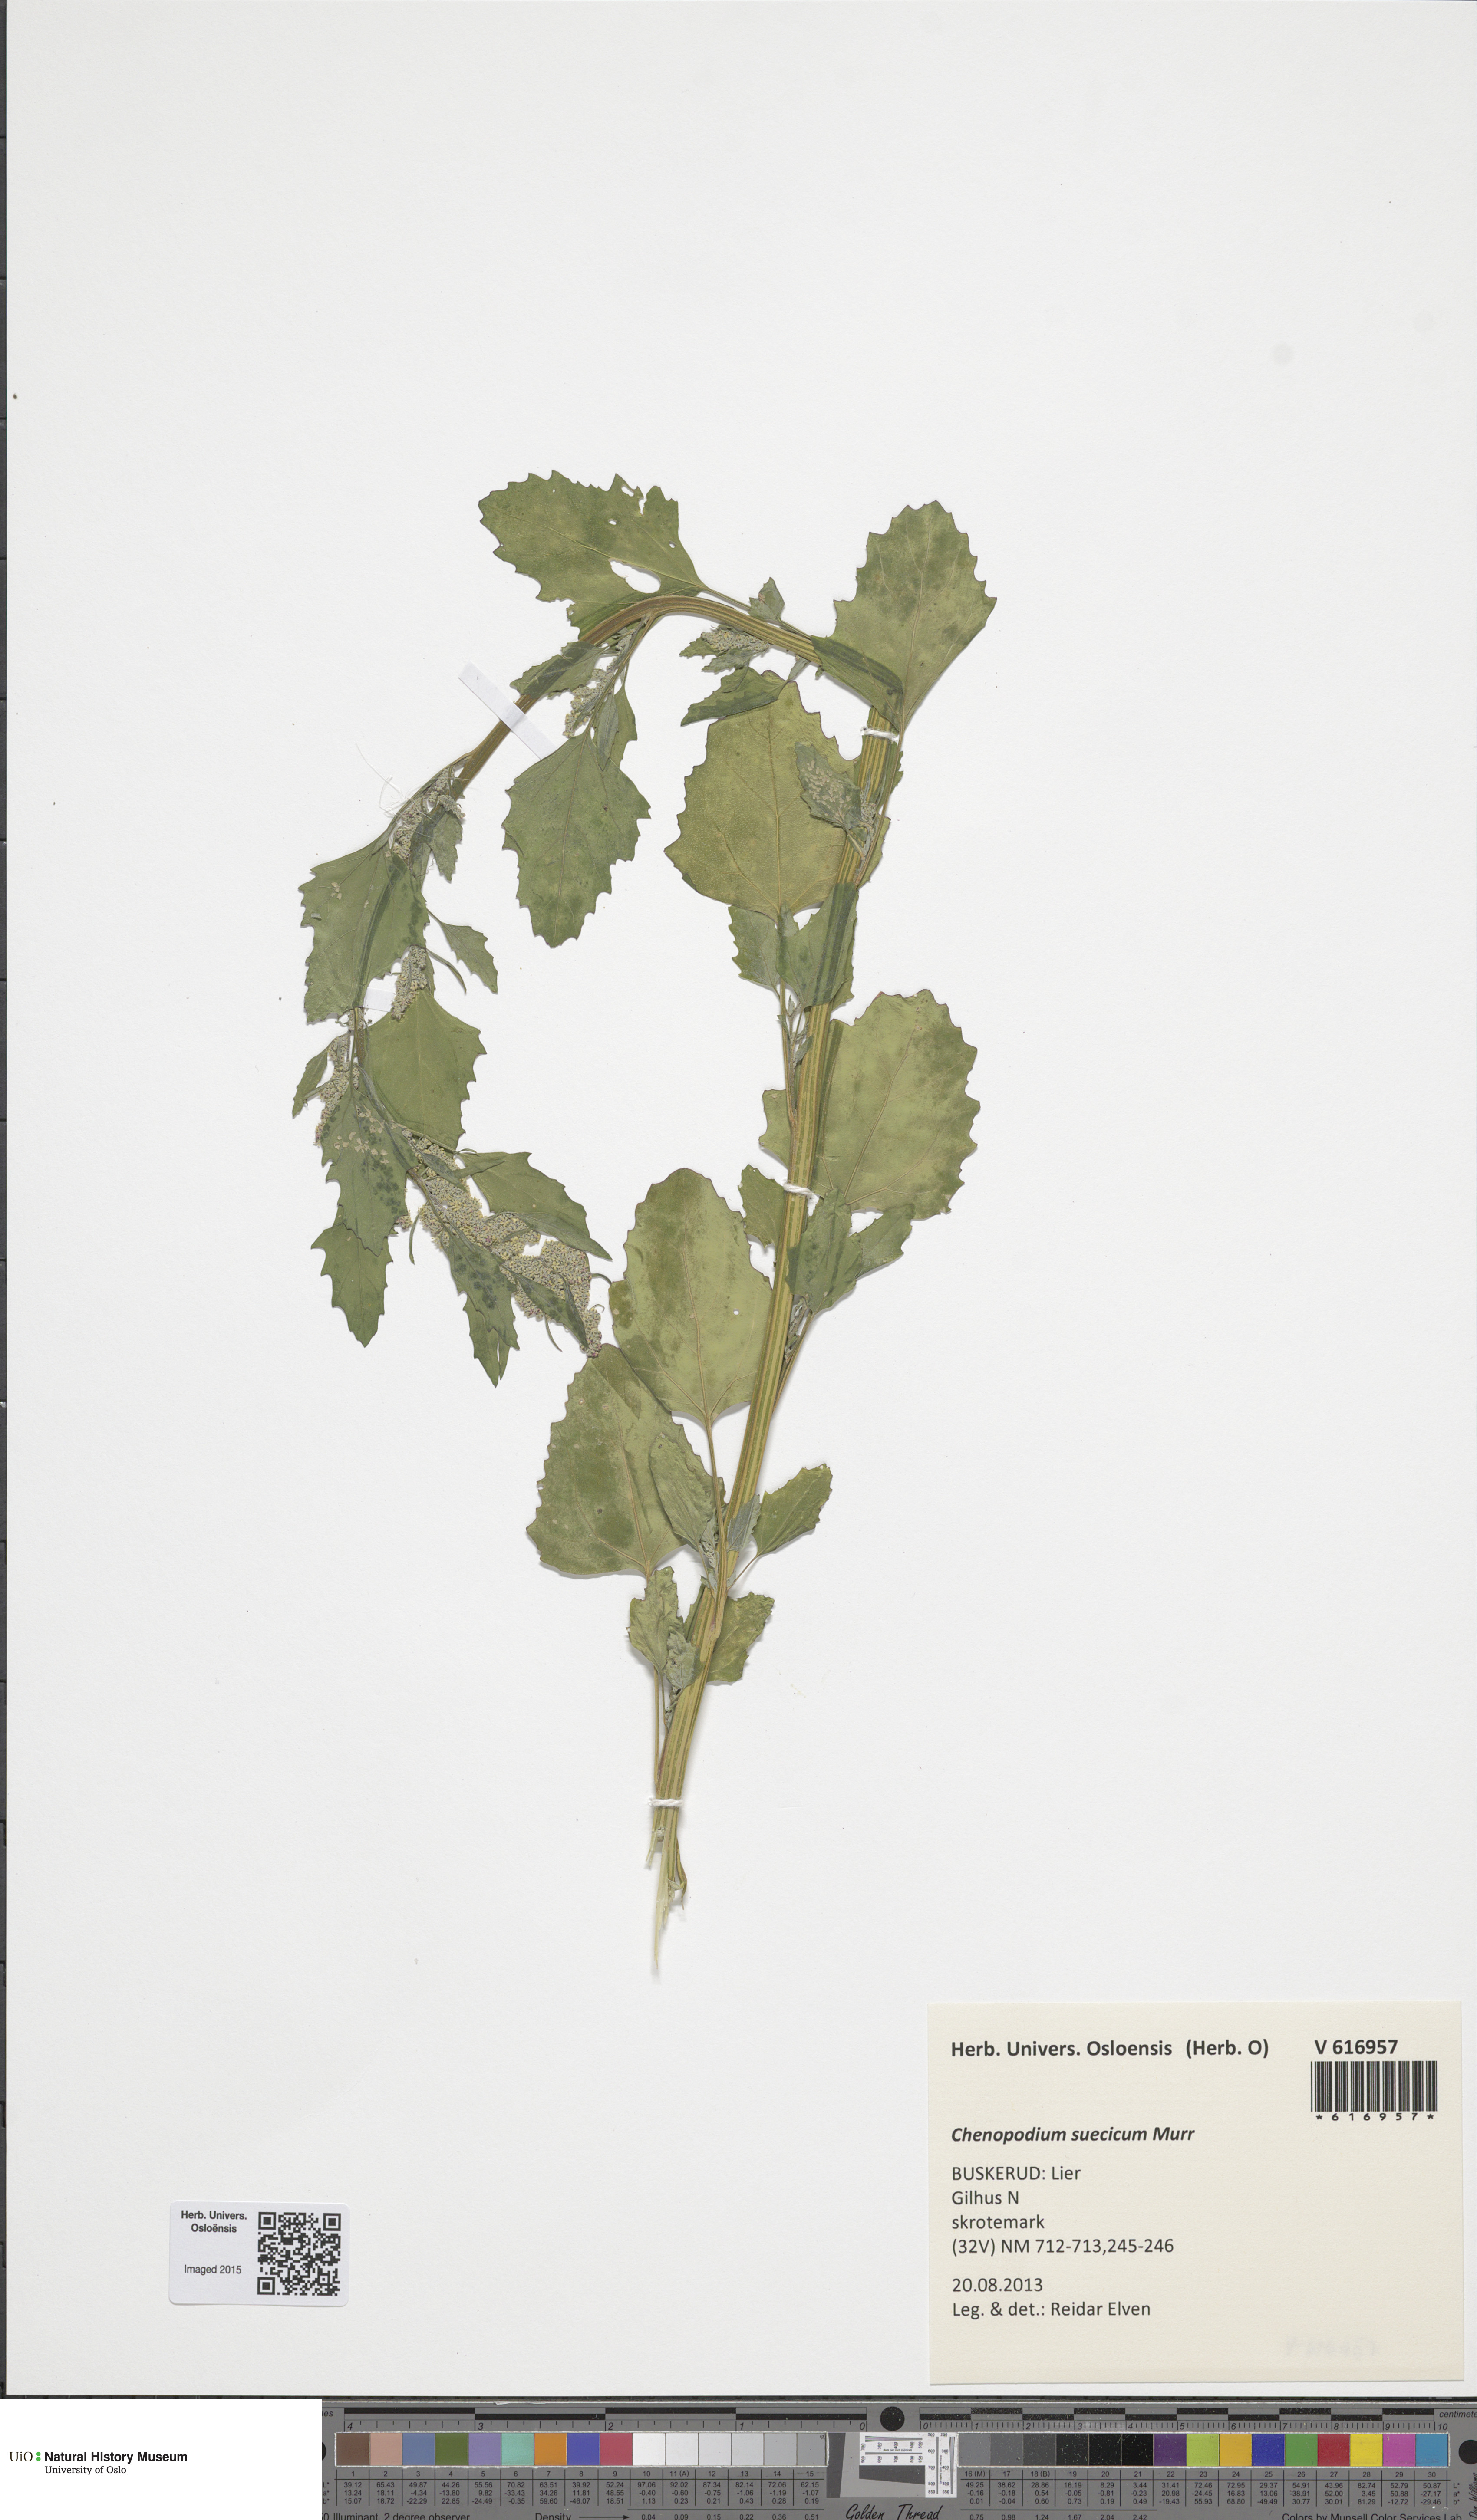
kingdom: Plantae
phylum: Tracheophyta
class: Magnoliopsida
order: Caryophyllales
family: Amaranthaceae
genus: Chenopodium
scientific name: Chenopodium suecicum
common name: Swedish goosefoot
